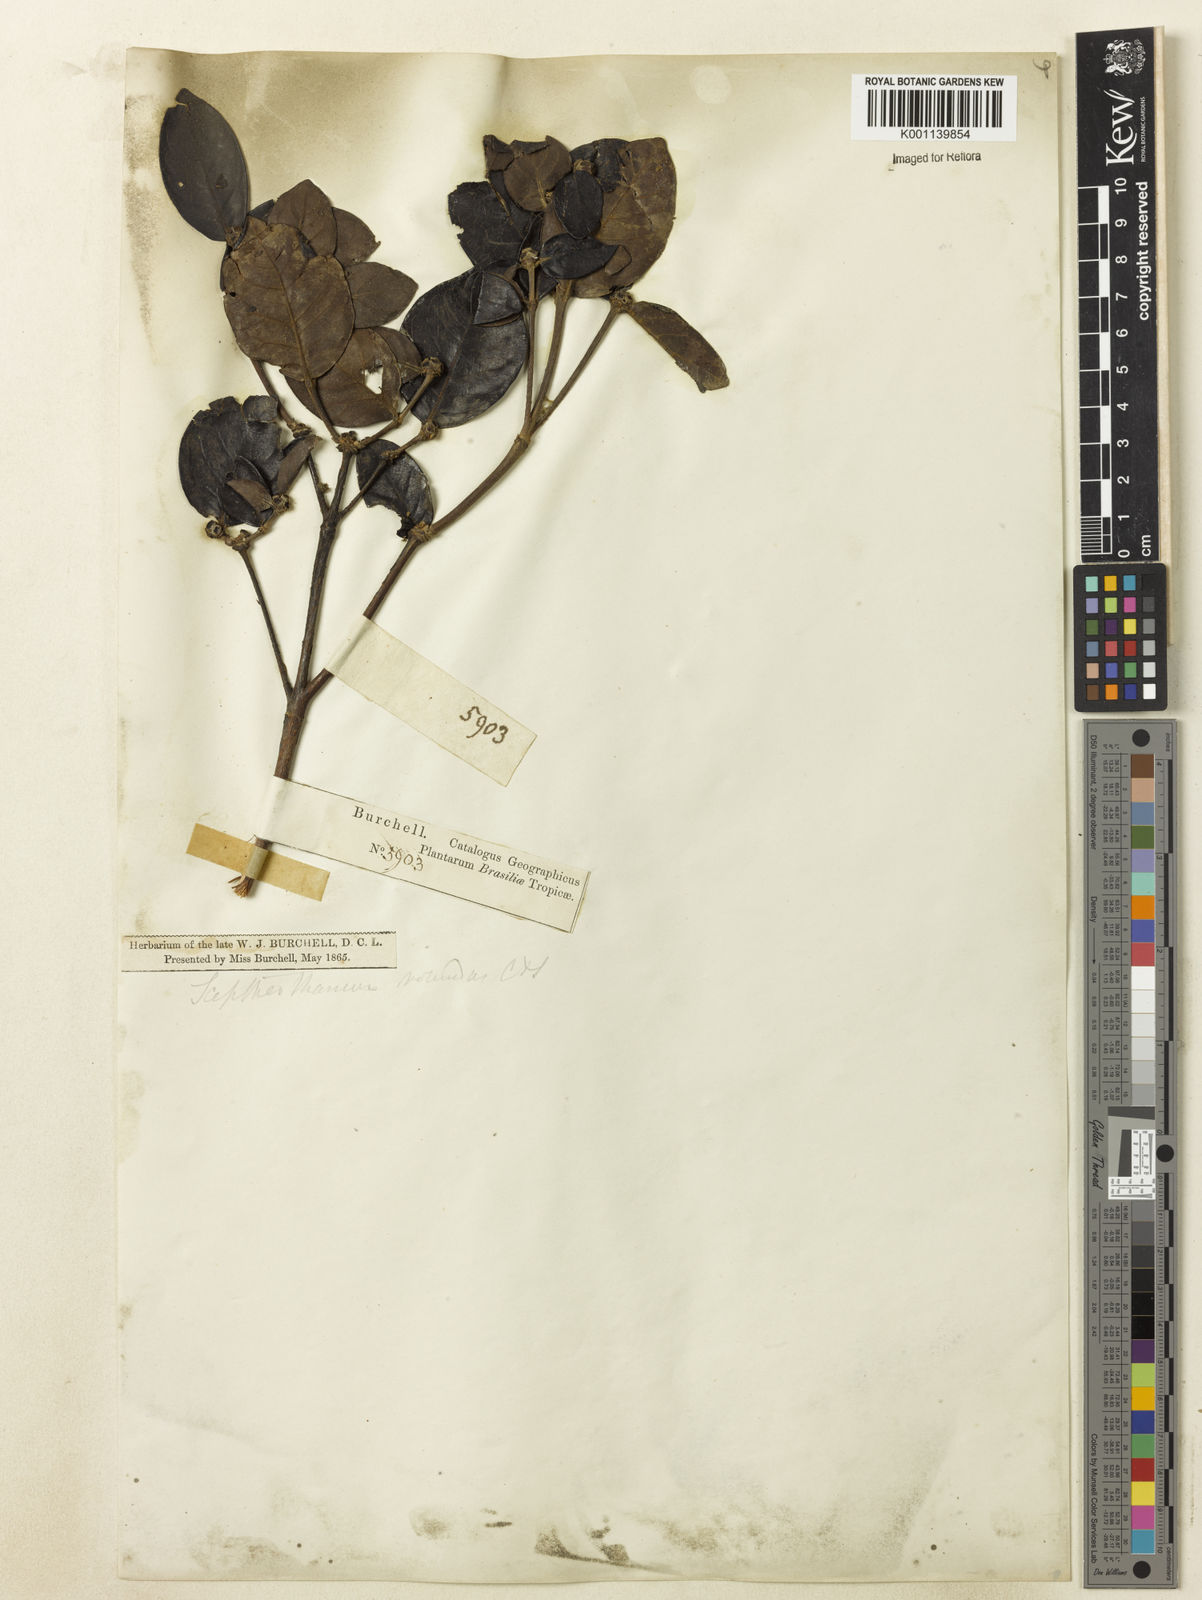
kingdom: Plantae
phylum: Tracheophyta
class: Magnoliopsida
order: Gentianales
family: Rubiaceae
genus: Cordiera
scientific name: Cordiera concolor
